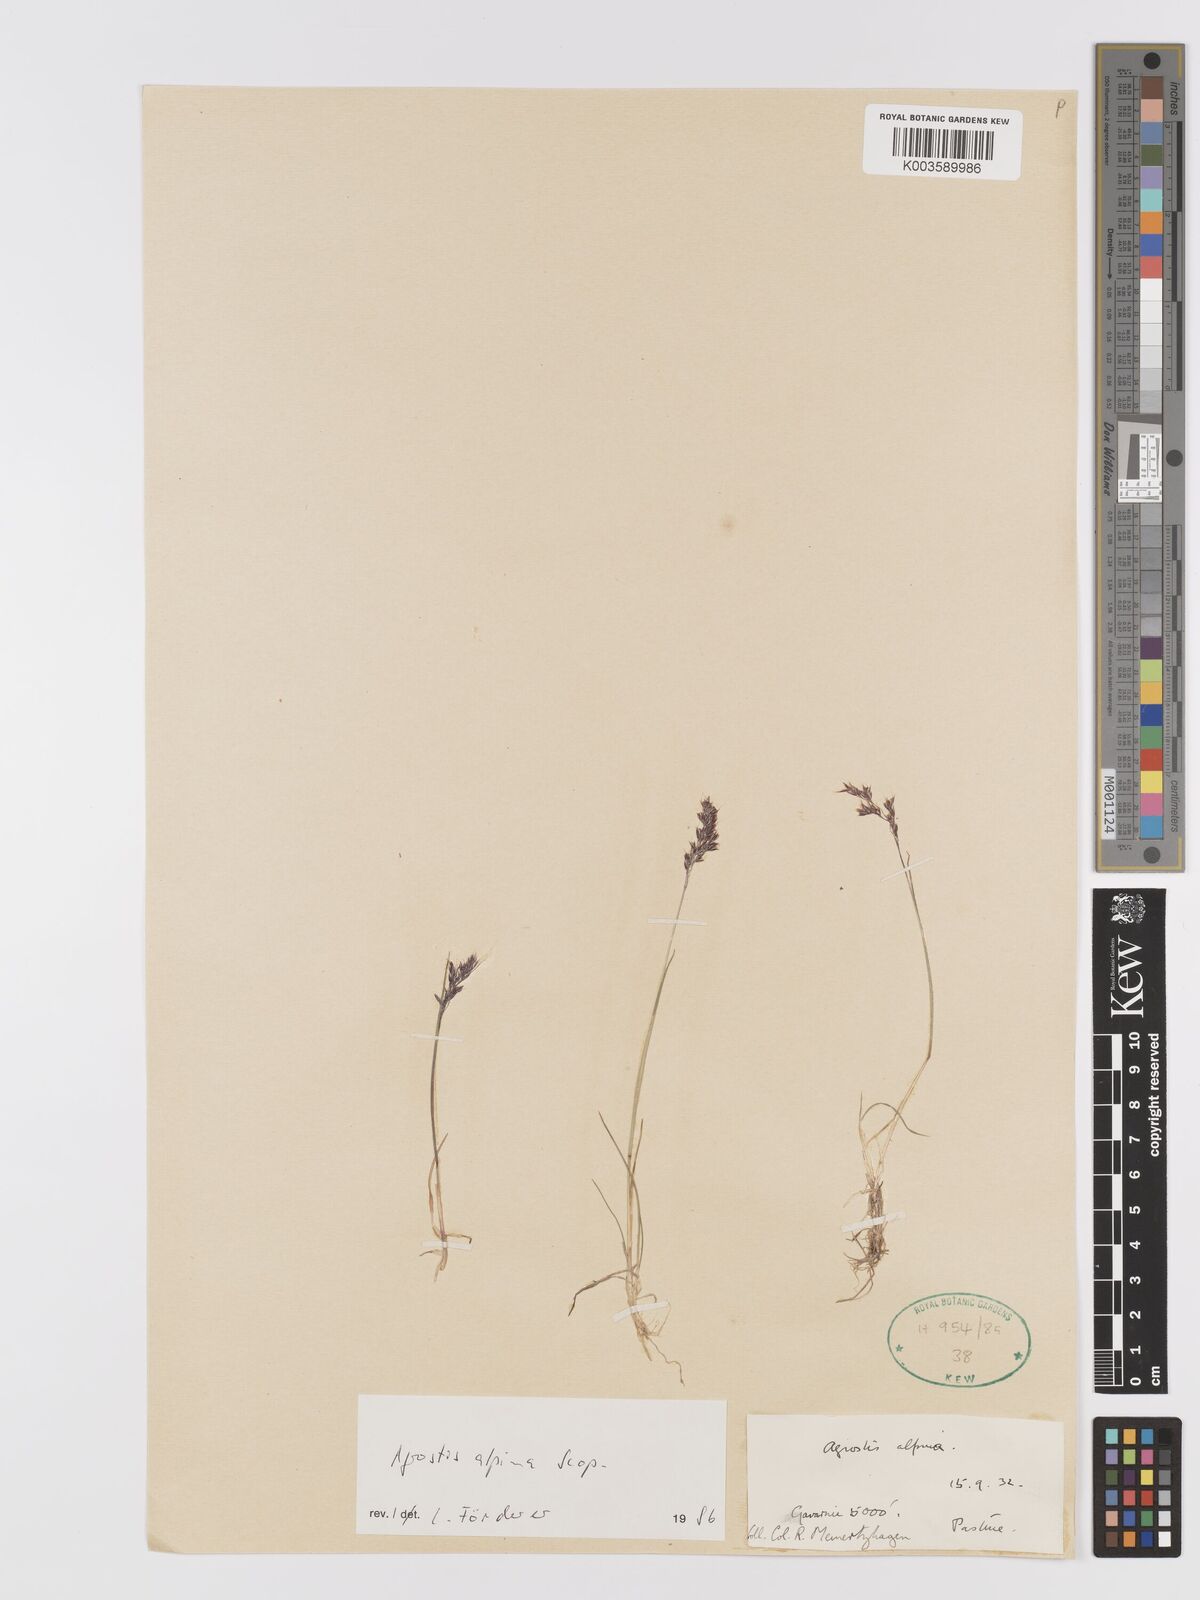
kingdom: Plantae
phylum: Tracheophyta
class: Liliopsida
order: Poales
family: Poaceae
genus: Alpagrostis
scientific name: Alpagrostis alpina
